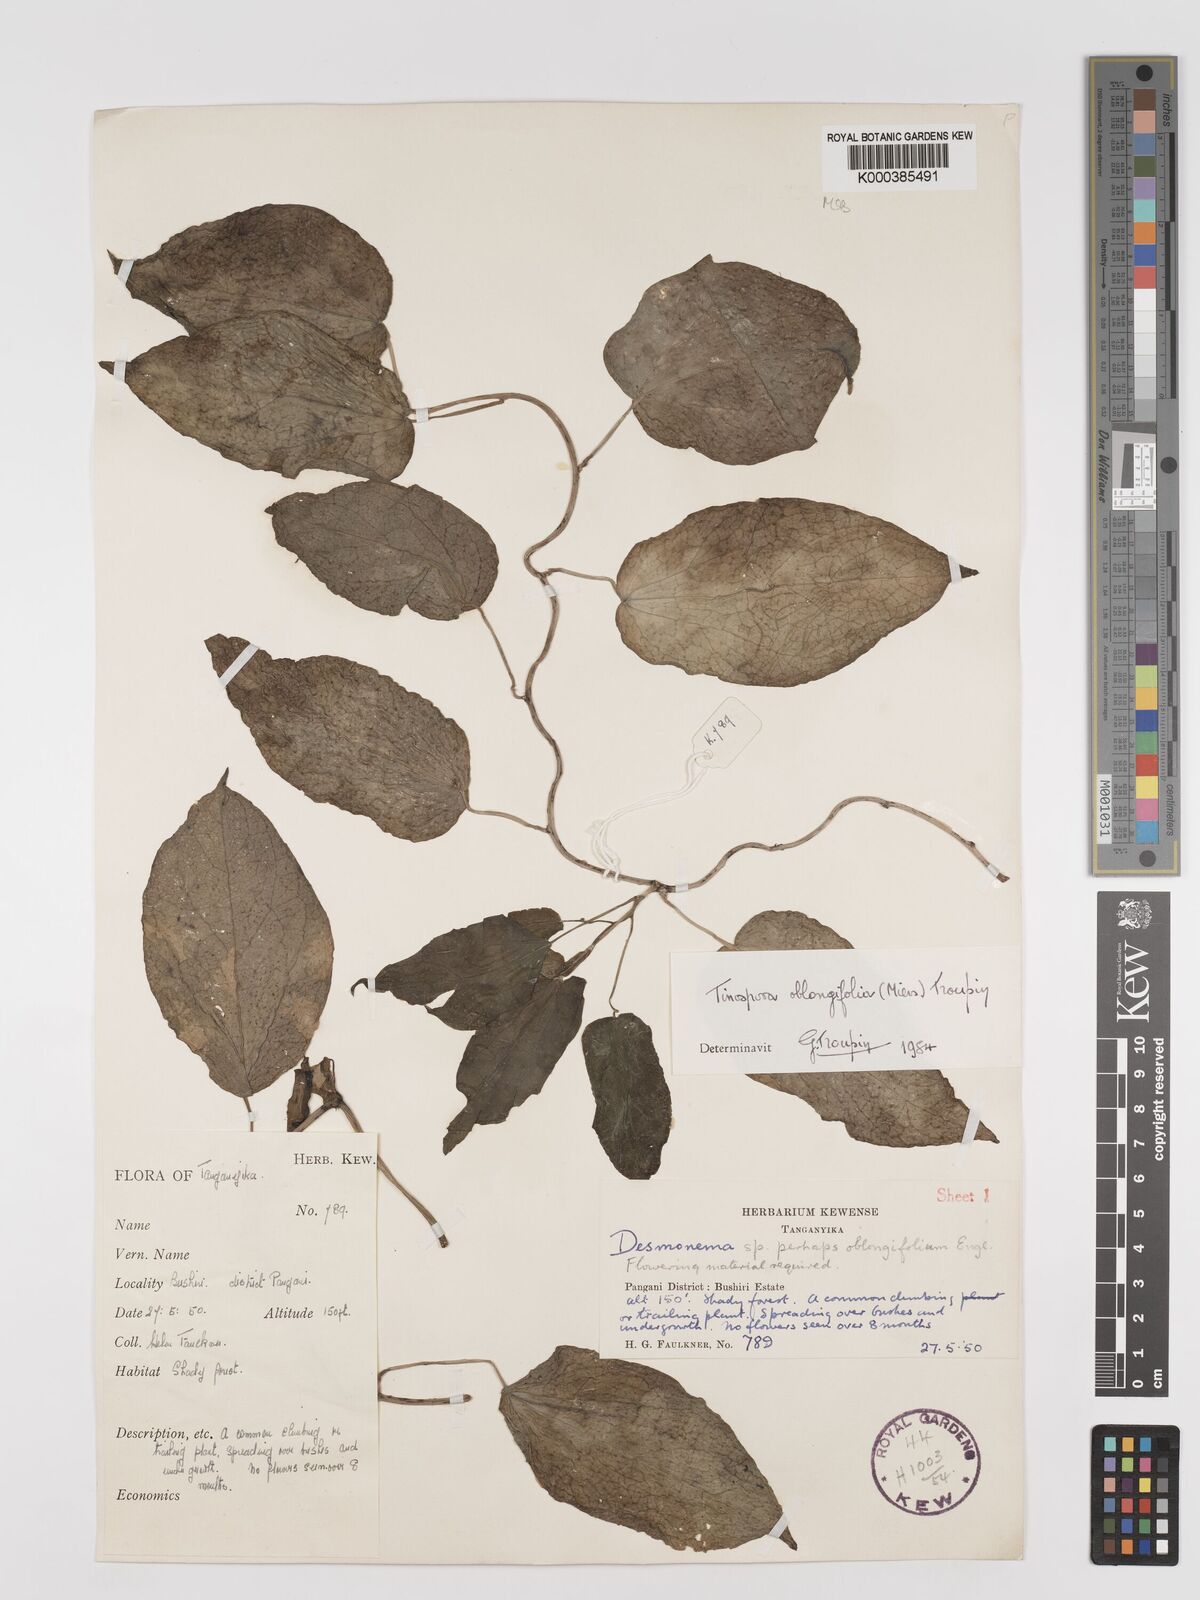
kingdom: Plantae
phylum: Tracheophyta
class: Magnoliopsida
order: Ranunculales
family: Menispermaceae
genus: Tinospora
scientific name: Tinospora oblongifolia
